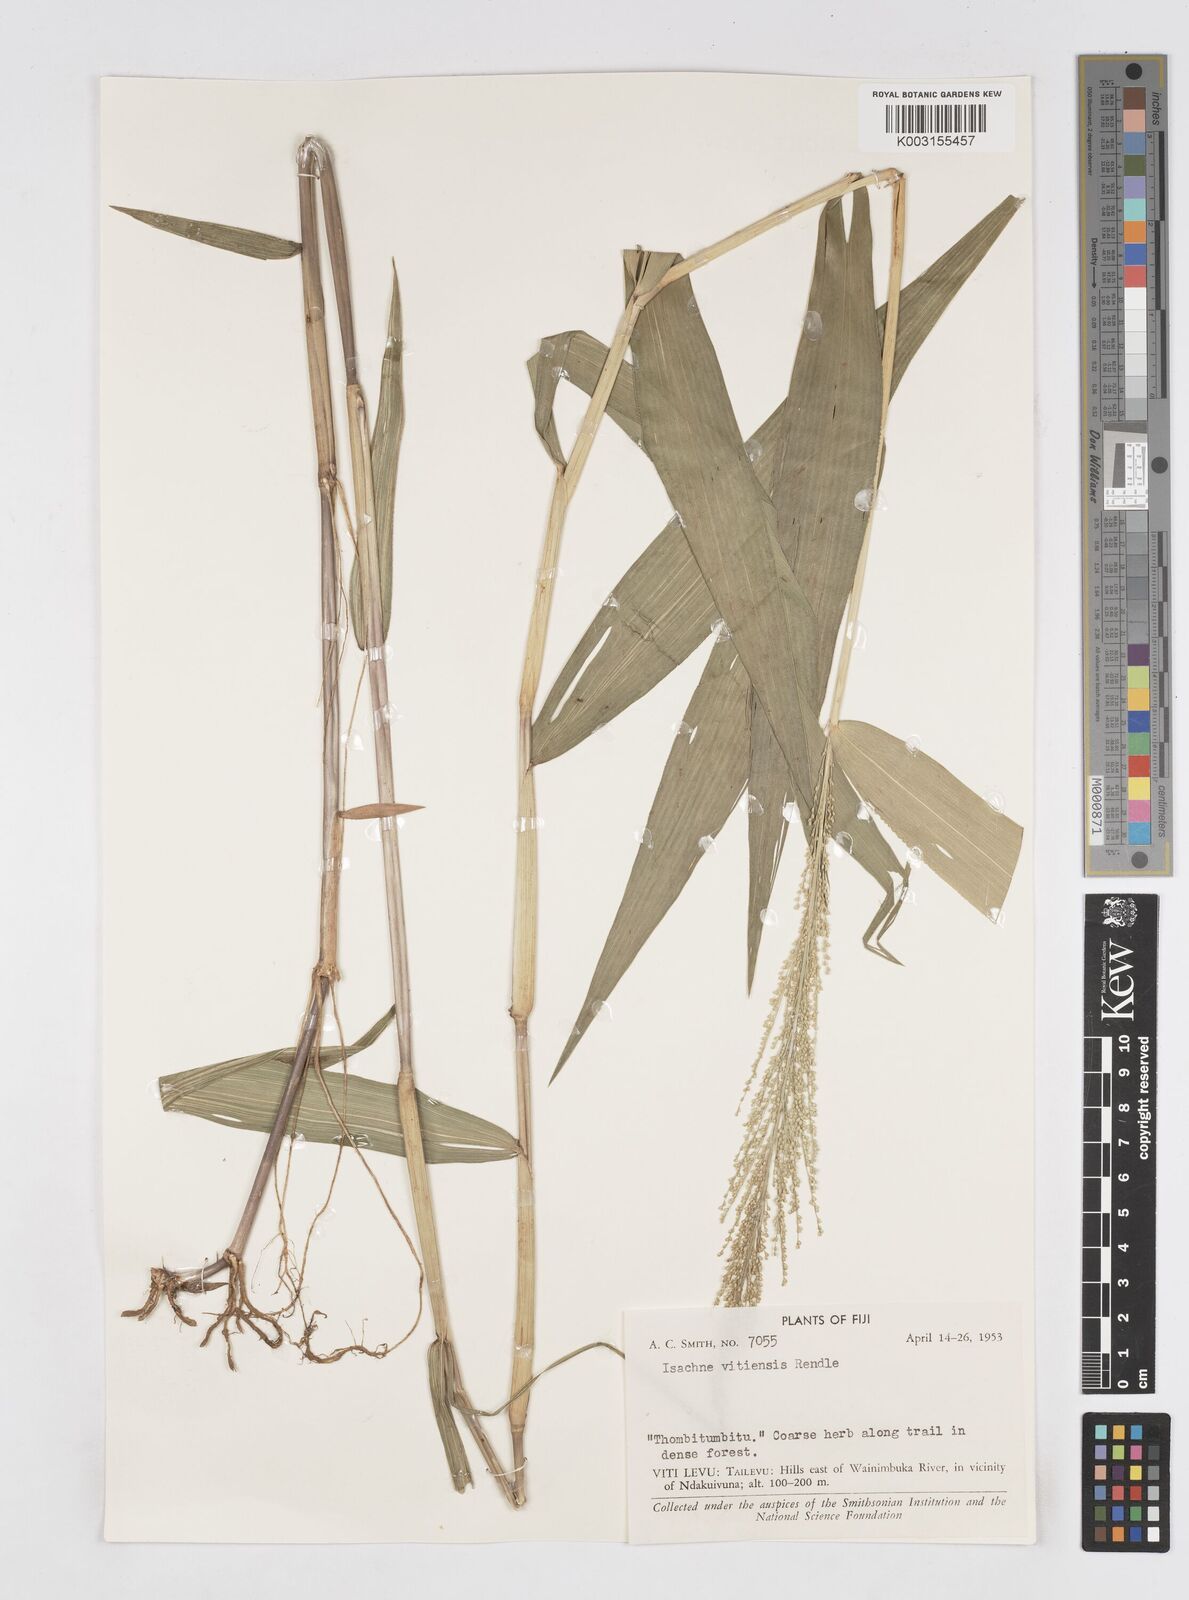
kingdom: Plantae
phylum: Tracheophyta
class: Liliopsida
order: Poales
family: Poaceae
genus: Isachne
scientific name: Isachne vitiensis
